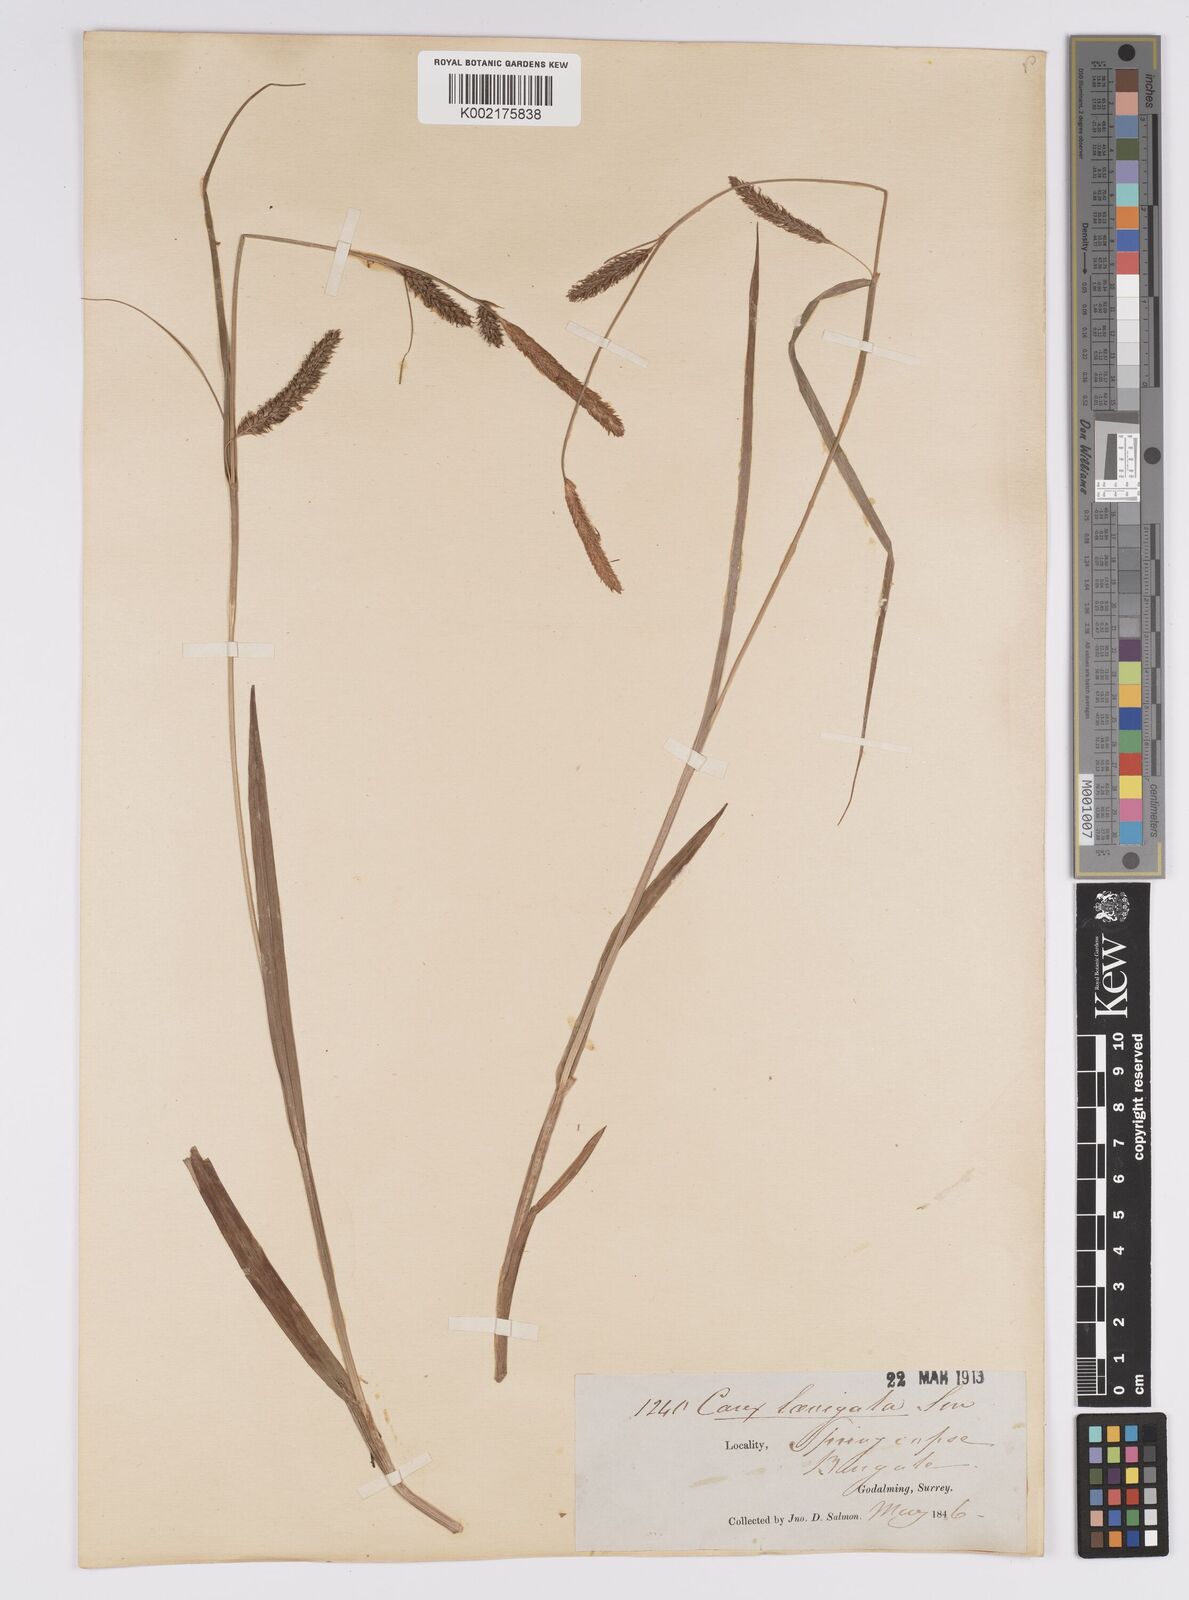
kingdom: Plantae
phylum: Tracheophyta
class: Liliopsida
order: Poales
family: Cyperaceae
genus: Carex
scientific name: Carex laevigata
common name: Smooth-stalked sedge
